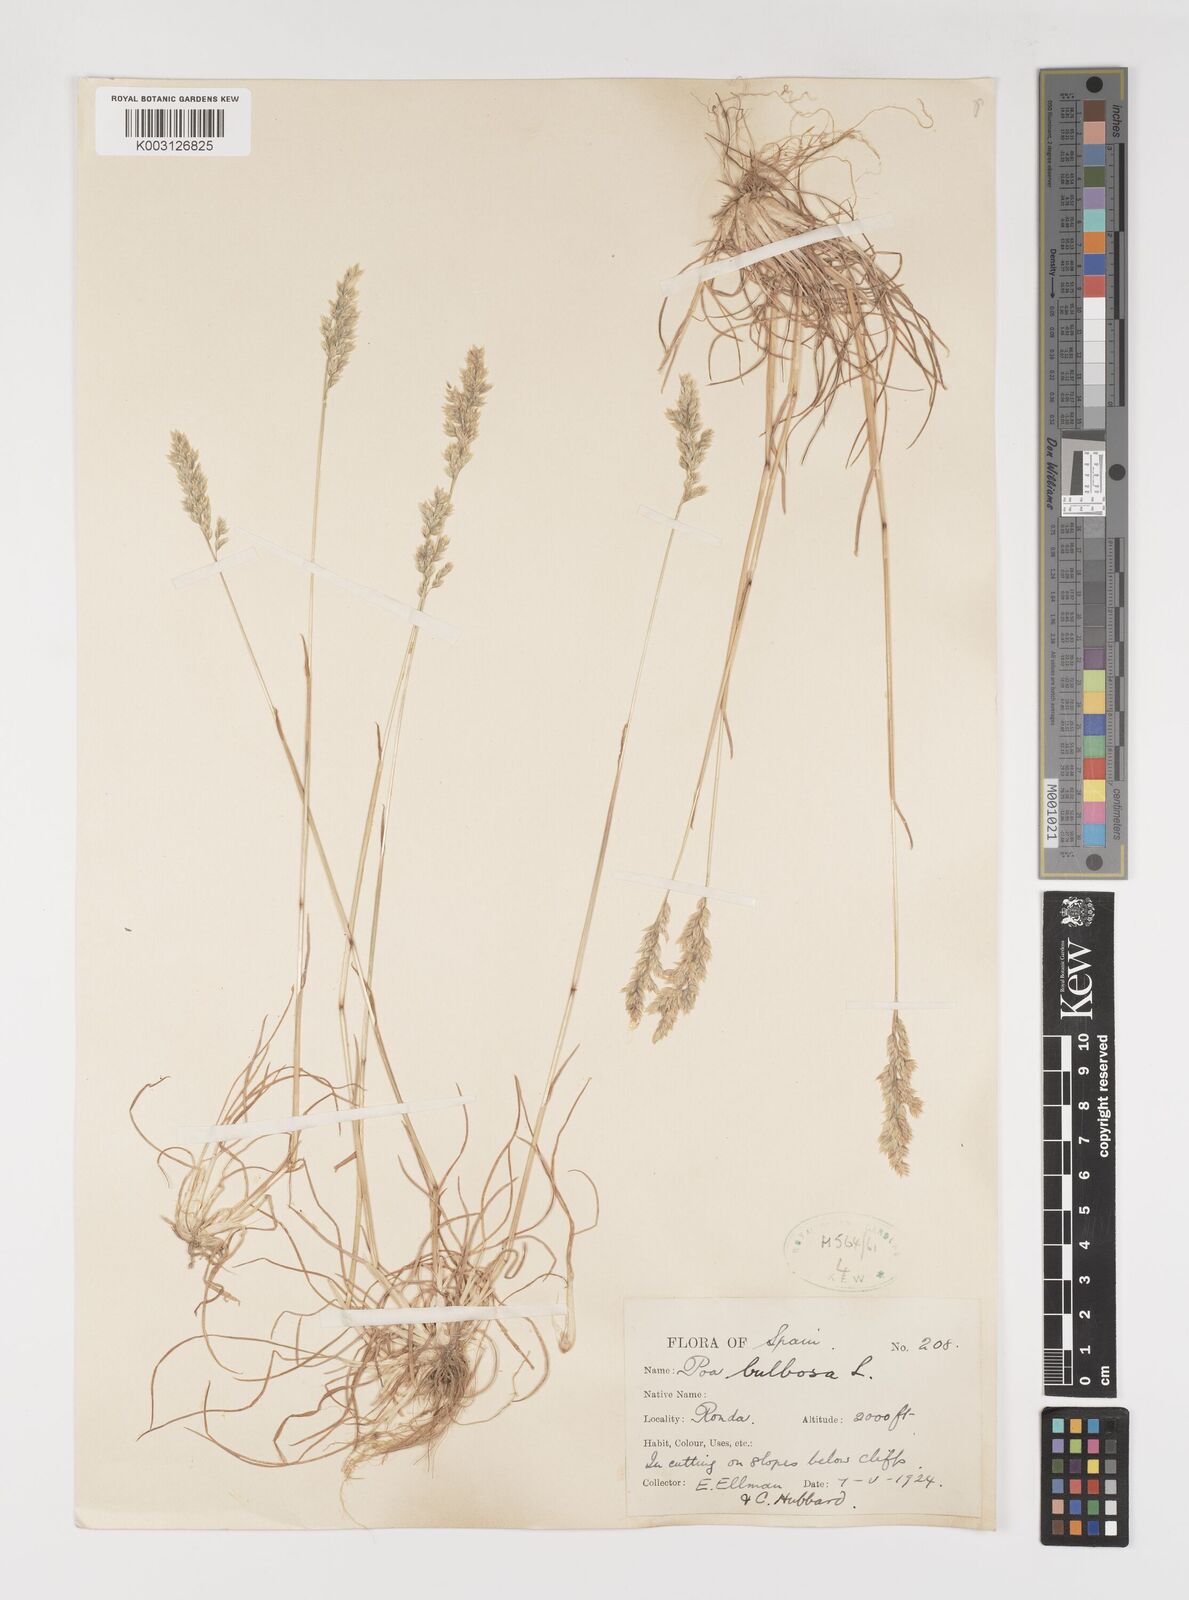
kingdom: Plantae
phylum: Tracheophyta
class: Liliopsida
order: Poales
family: Poaceae
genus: Poa
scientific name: Poa bulbosa
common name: Bulbous bluegrass
